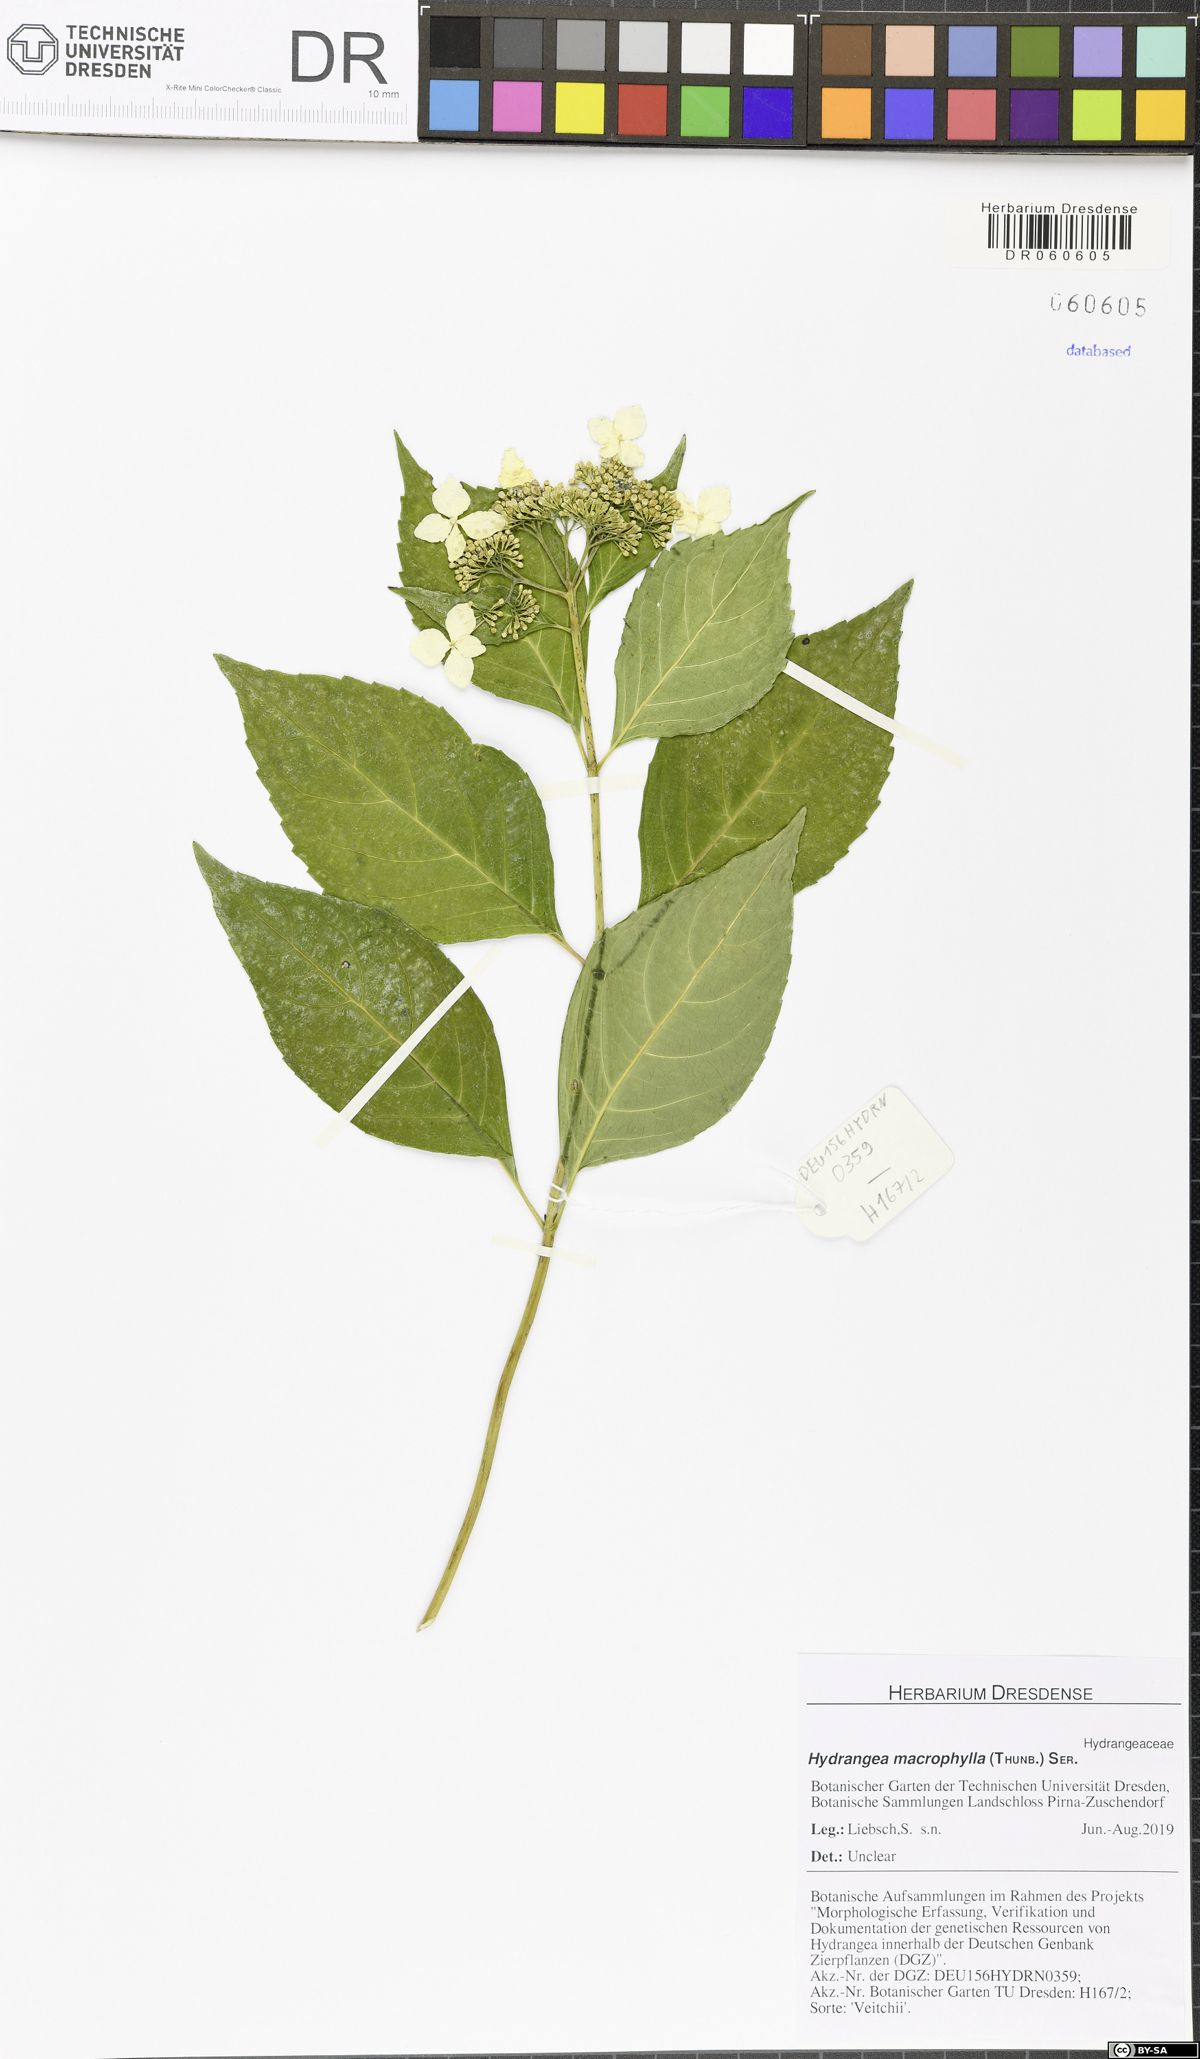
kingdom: Plantae
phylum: Tracheophyta
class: Magnoliopsida
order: Cornales
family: Hydrangeaceae
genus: Hydrangea
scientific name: Hydrangea macrophylla
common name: Hydrangea
